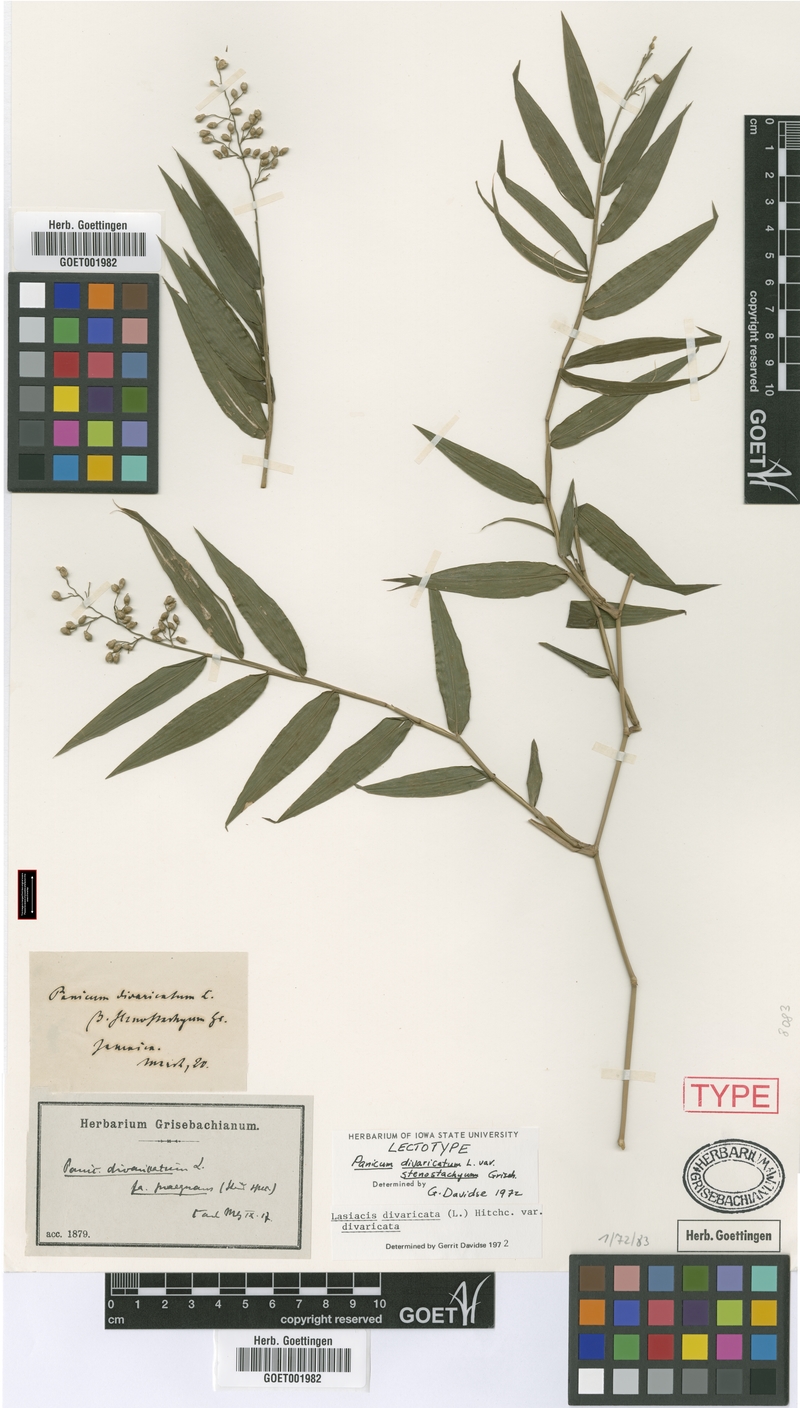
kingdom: Plantae
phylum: Tracheophyta
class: Liliopsida
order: Poales
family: Poaceae
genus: Lasiacis
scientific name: Lasiacis divaricata
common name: Smallcane
